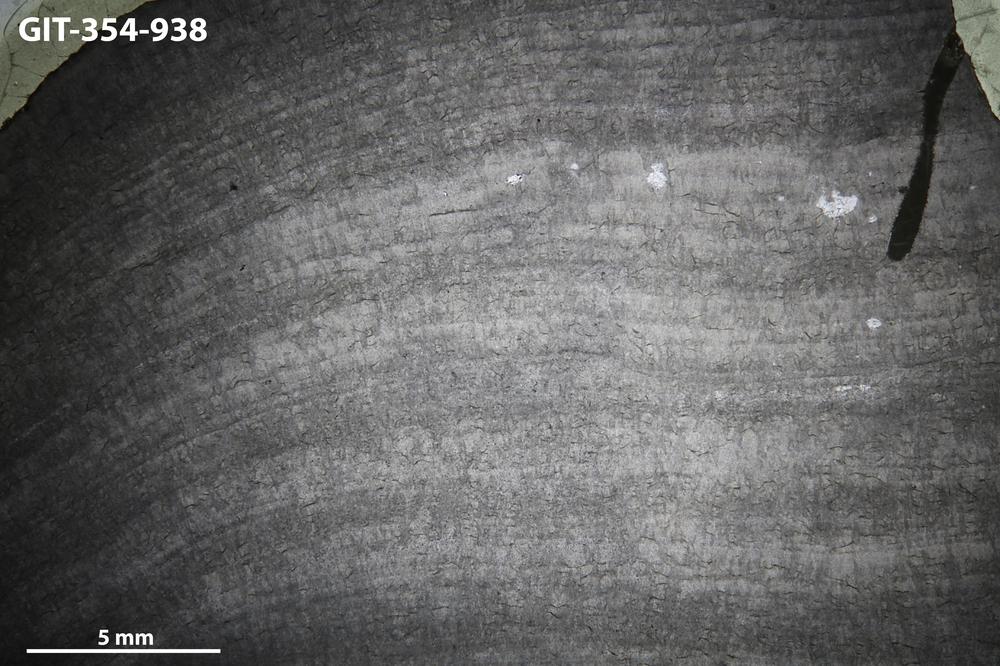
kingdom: Animalia
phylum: Porifera
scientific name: Porifera
